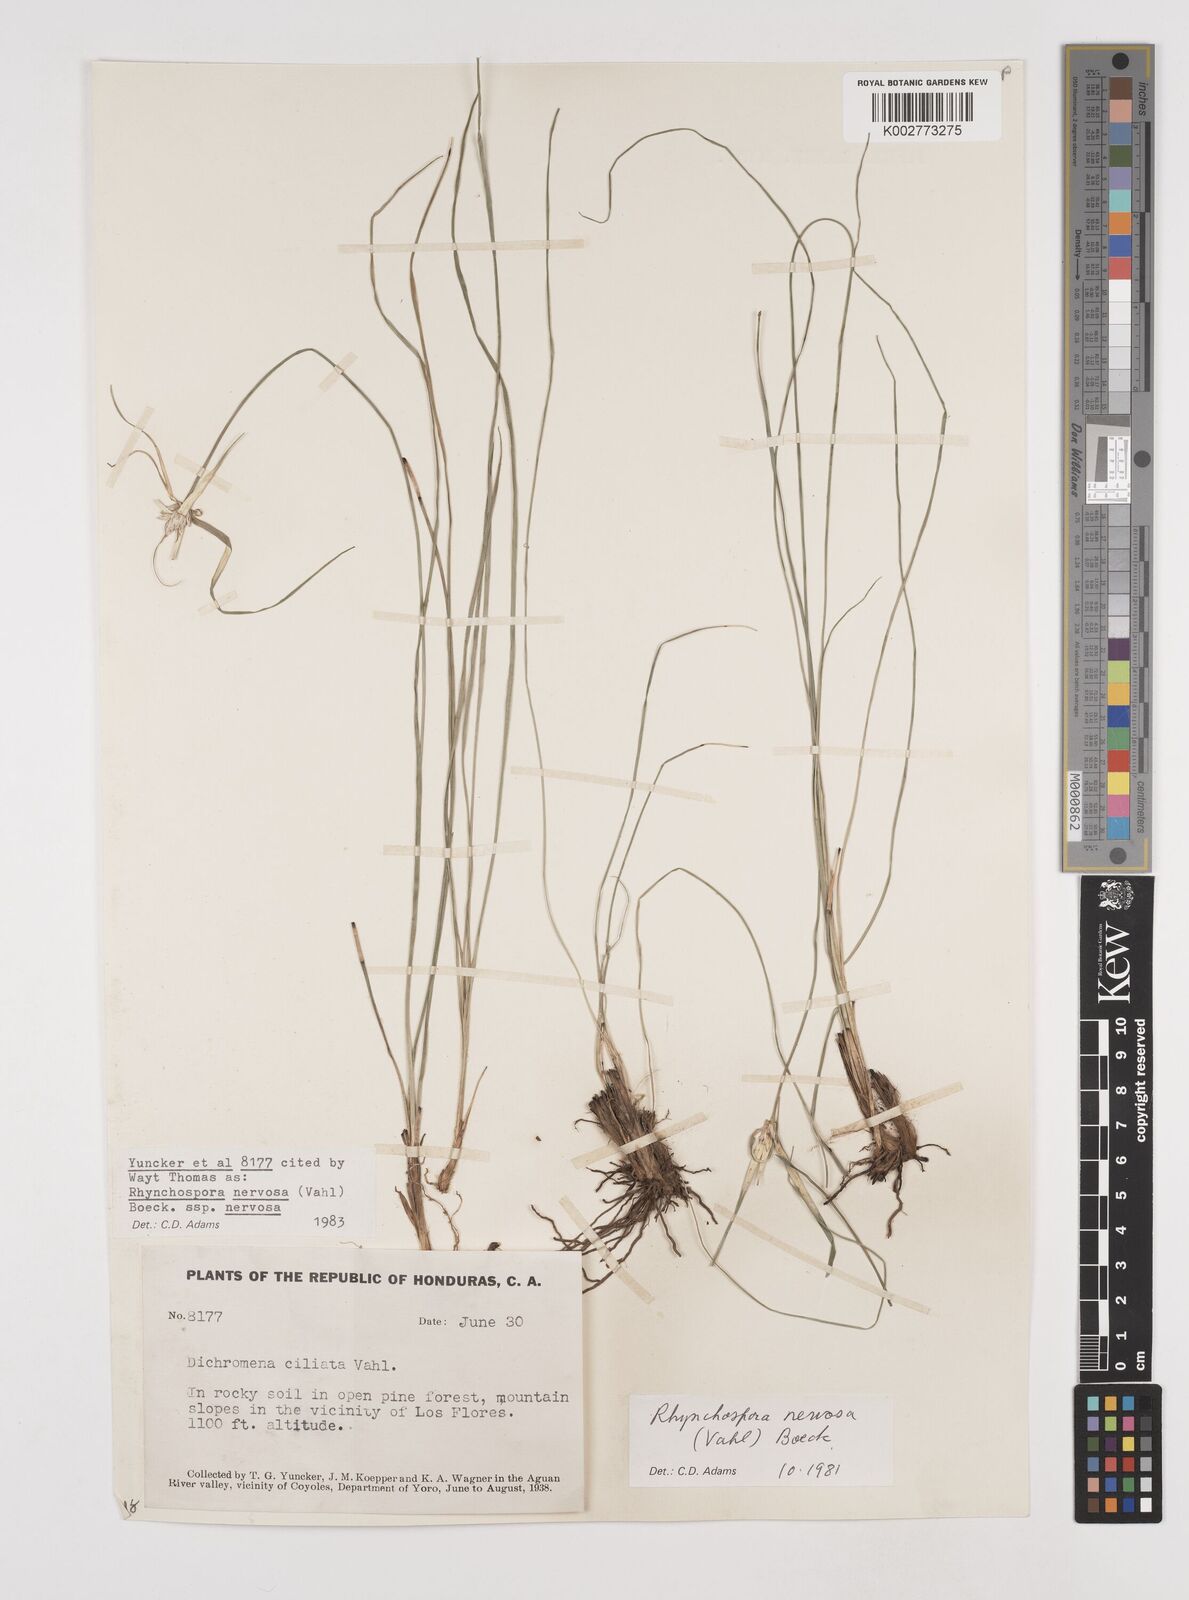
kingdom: Plantae
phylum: Tracheophyta
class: Liliopsida
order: Poales
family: Cyperaceae
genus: Rhynchospora
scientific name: Rhynchospora nervosa
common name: Star sedge
